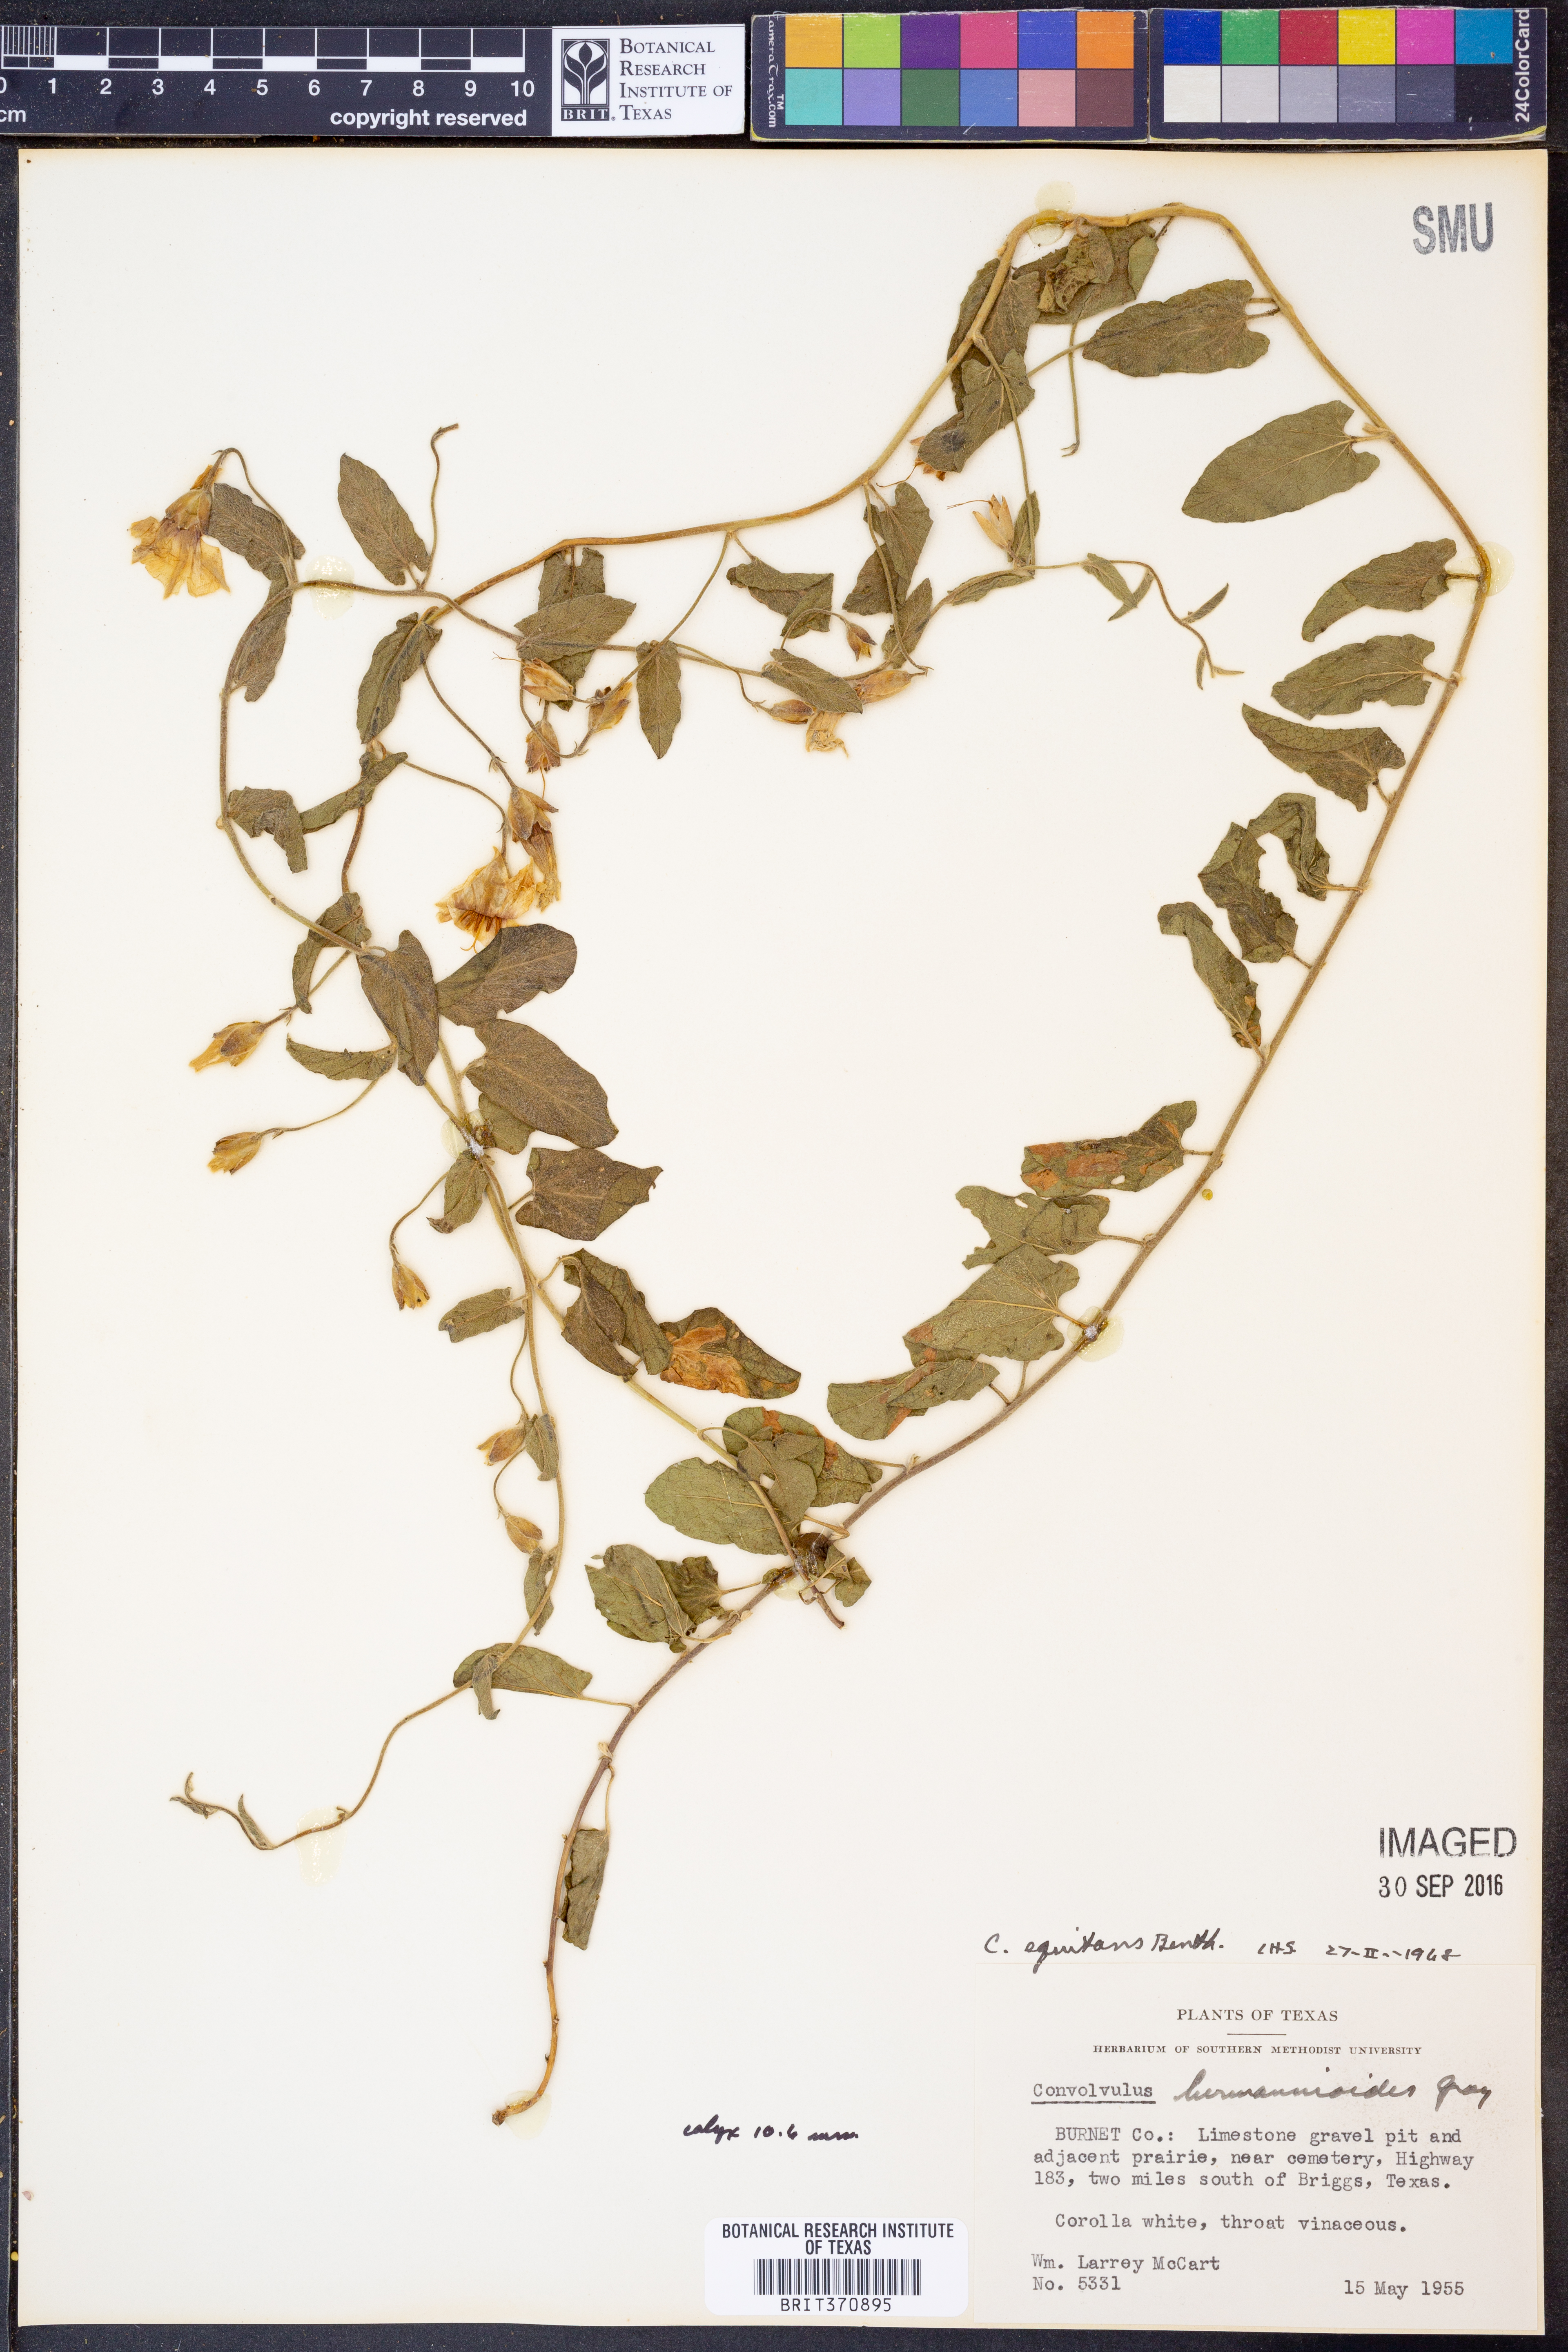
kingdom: Plantae
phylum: Tracheophyta
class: Magnoliopsida
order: Solanales
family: Convolvulaceae
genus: Convolvulus
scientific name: Convolvulus equitans
